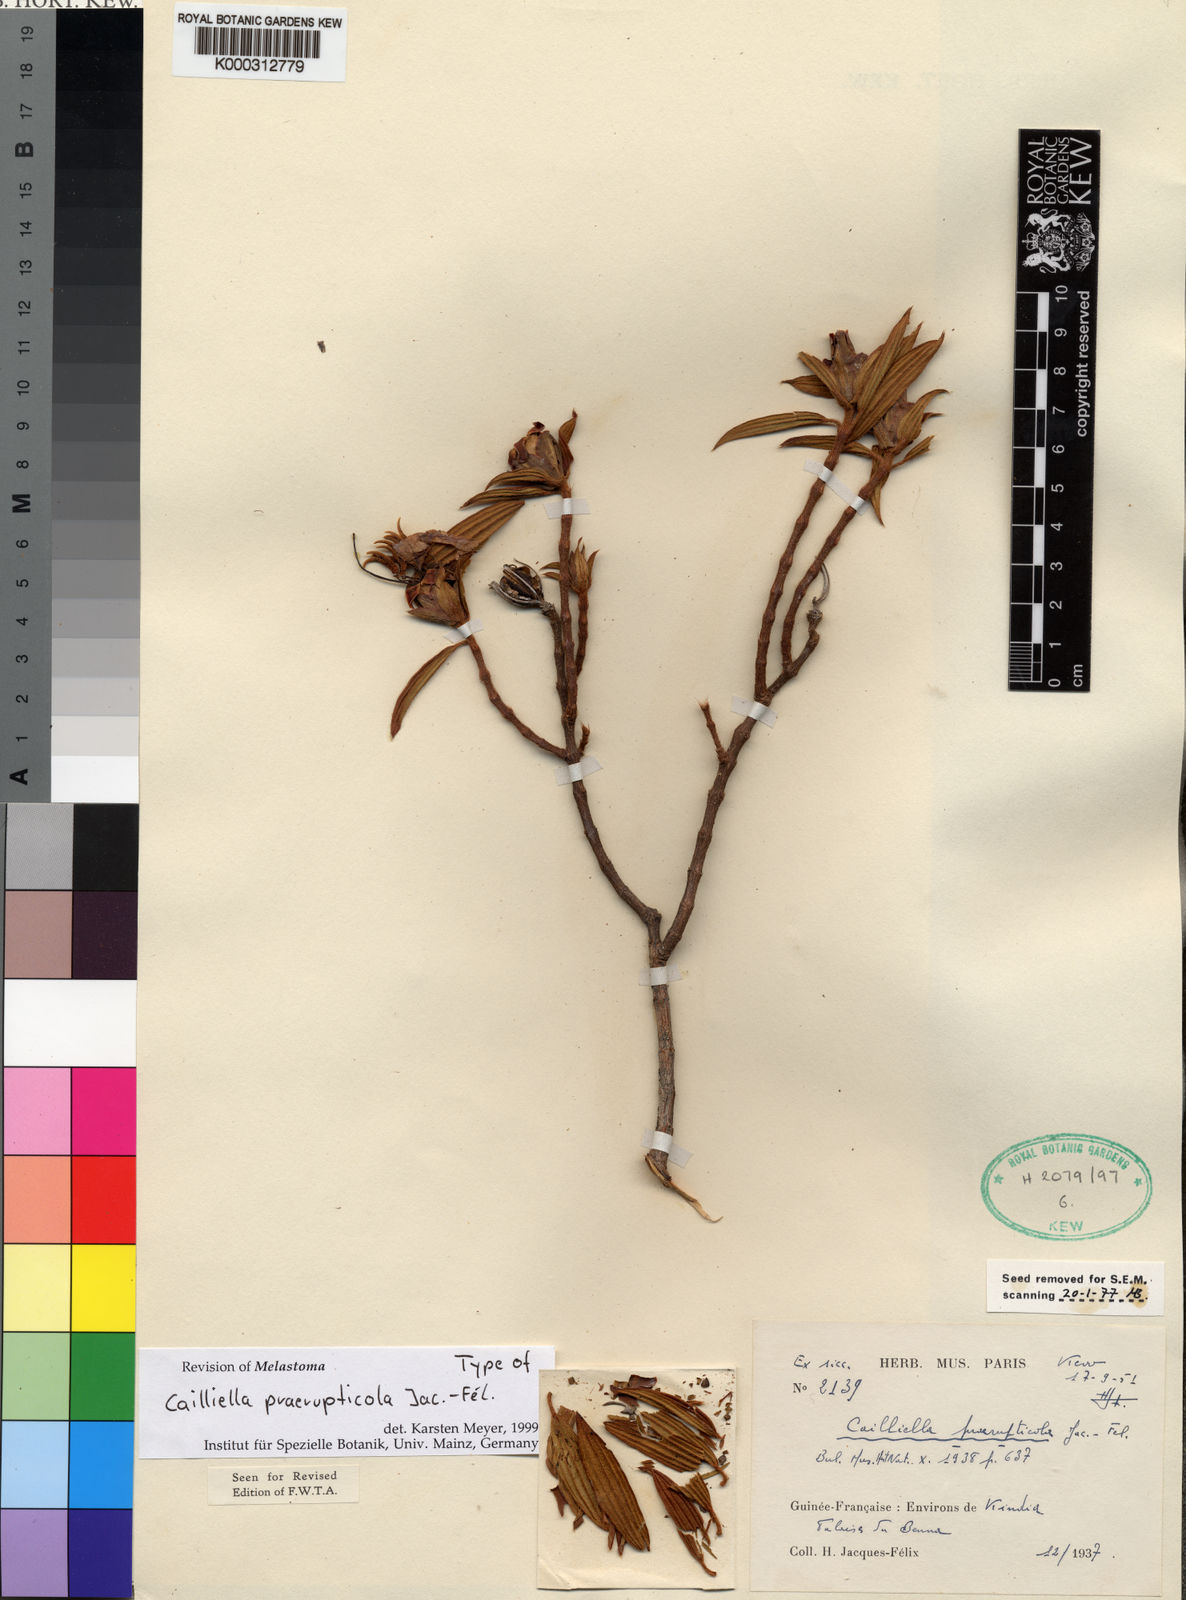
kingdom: Plantae
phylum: Tracheophyta
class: Magnoliopsida
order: Myrtales
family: Melastomataceae
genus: Cailliella
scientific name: Cailliella
